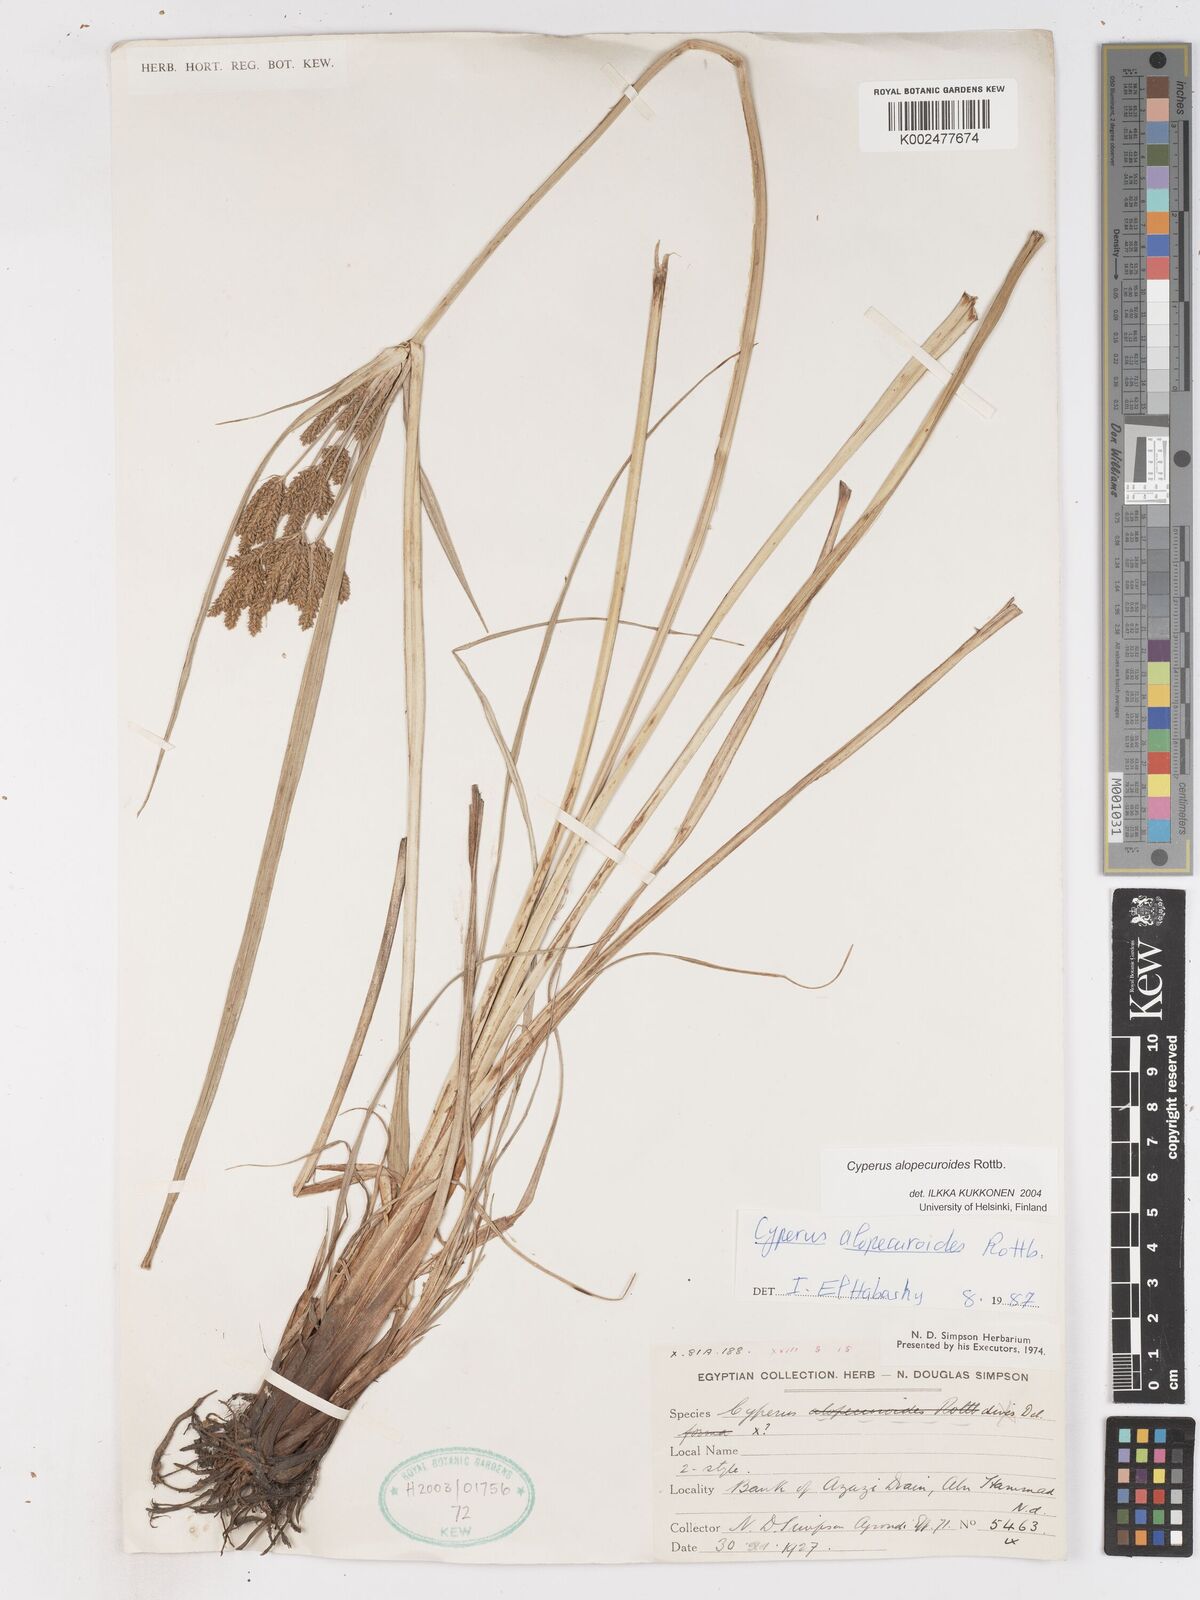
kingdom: Plantae
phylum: Tracheophyta
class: Liliopsida
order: Poales
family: Cyperaceae
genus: Cyperus
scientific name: Cyperus alopecuroides
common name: Foxtail flatsedge
